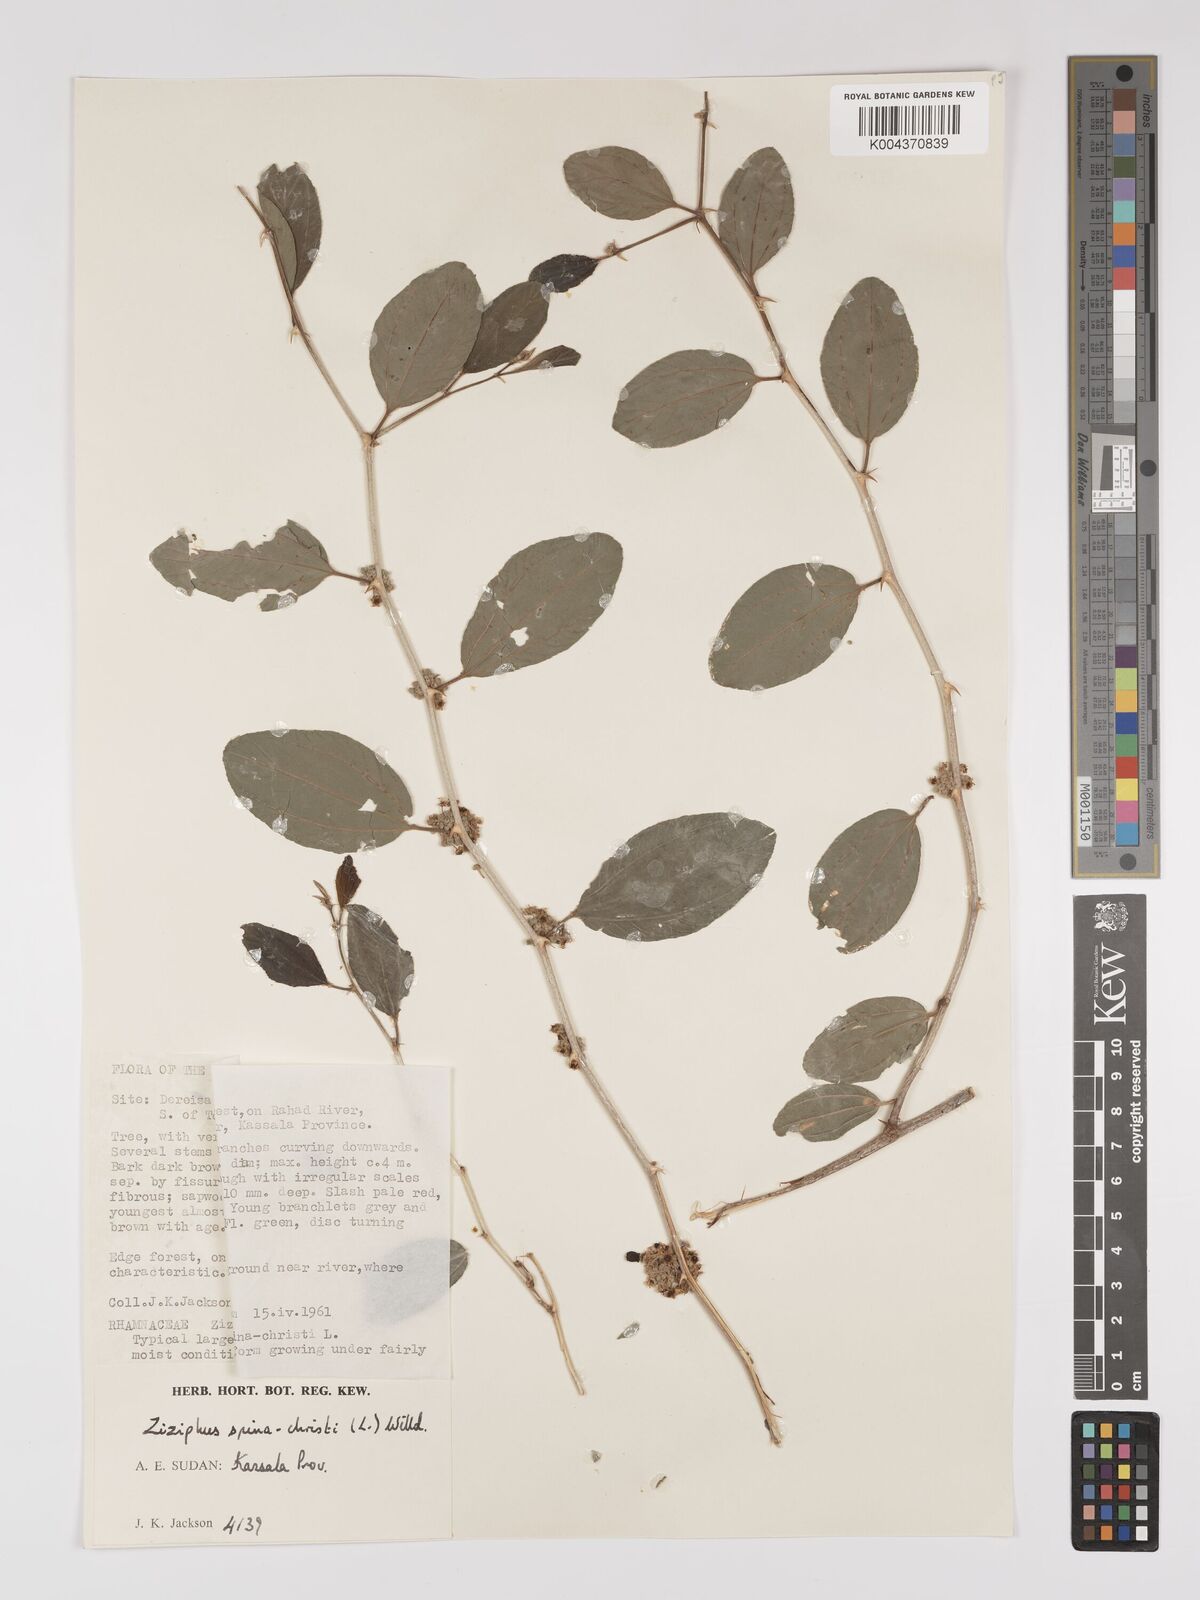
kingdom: Plantae
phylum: Tracheophyta
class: Magnoliopsida
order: Rosales
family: Rhamnaceae
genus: Ziziphus
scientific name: Ziziphus spina-christi
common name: Syrian christ-thorn
